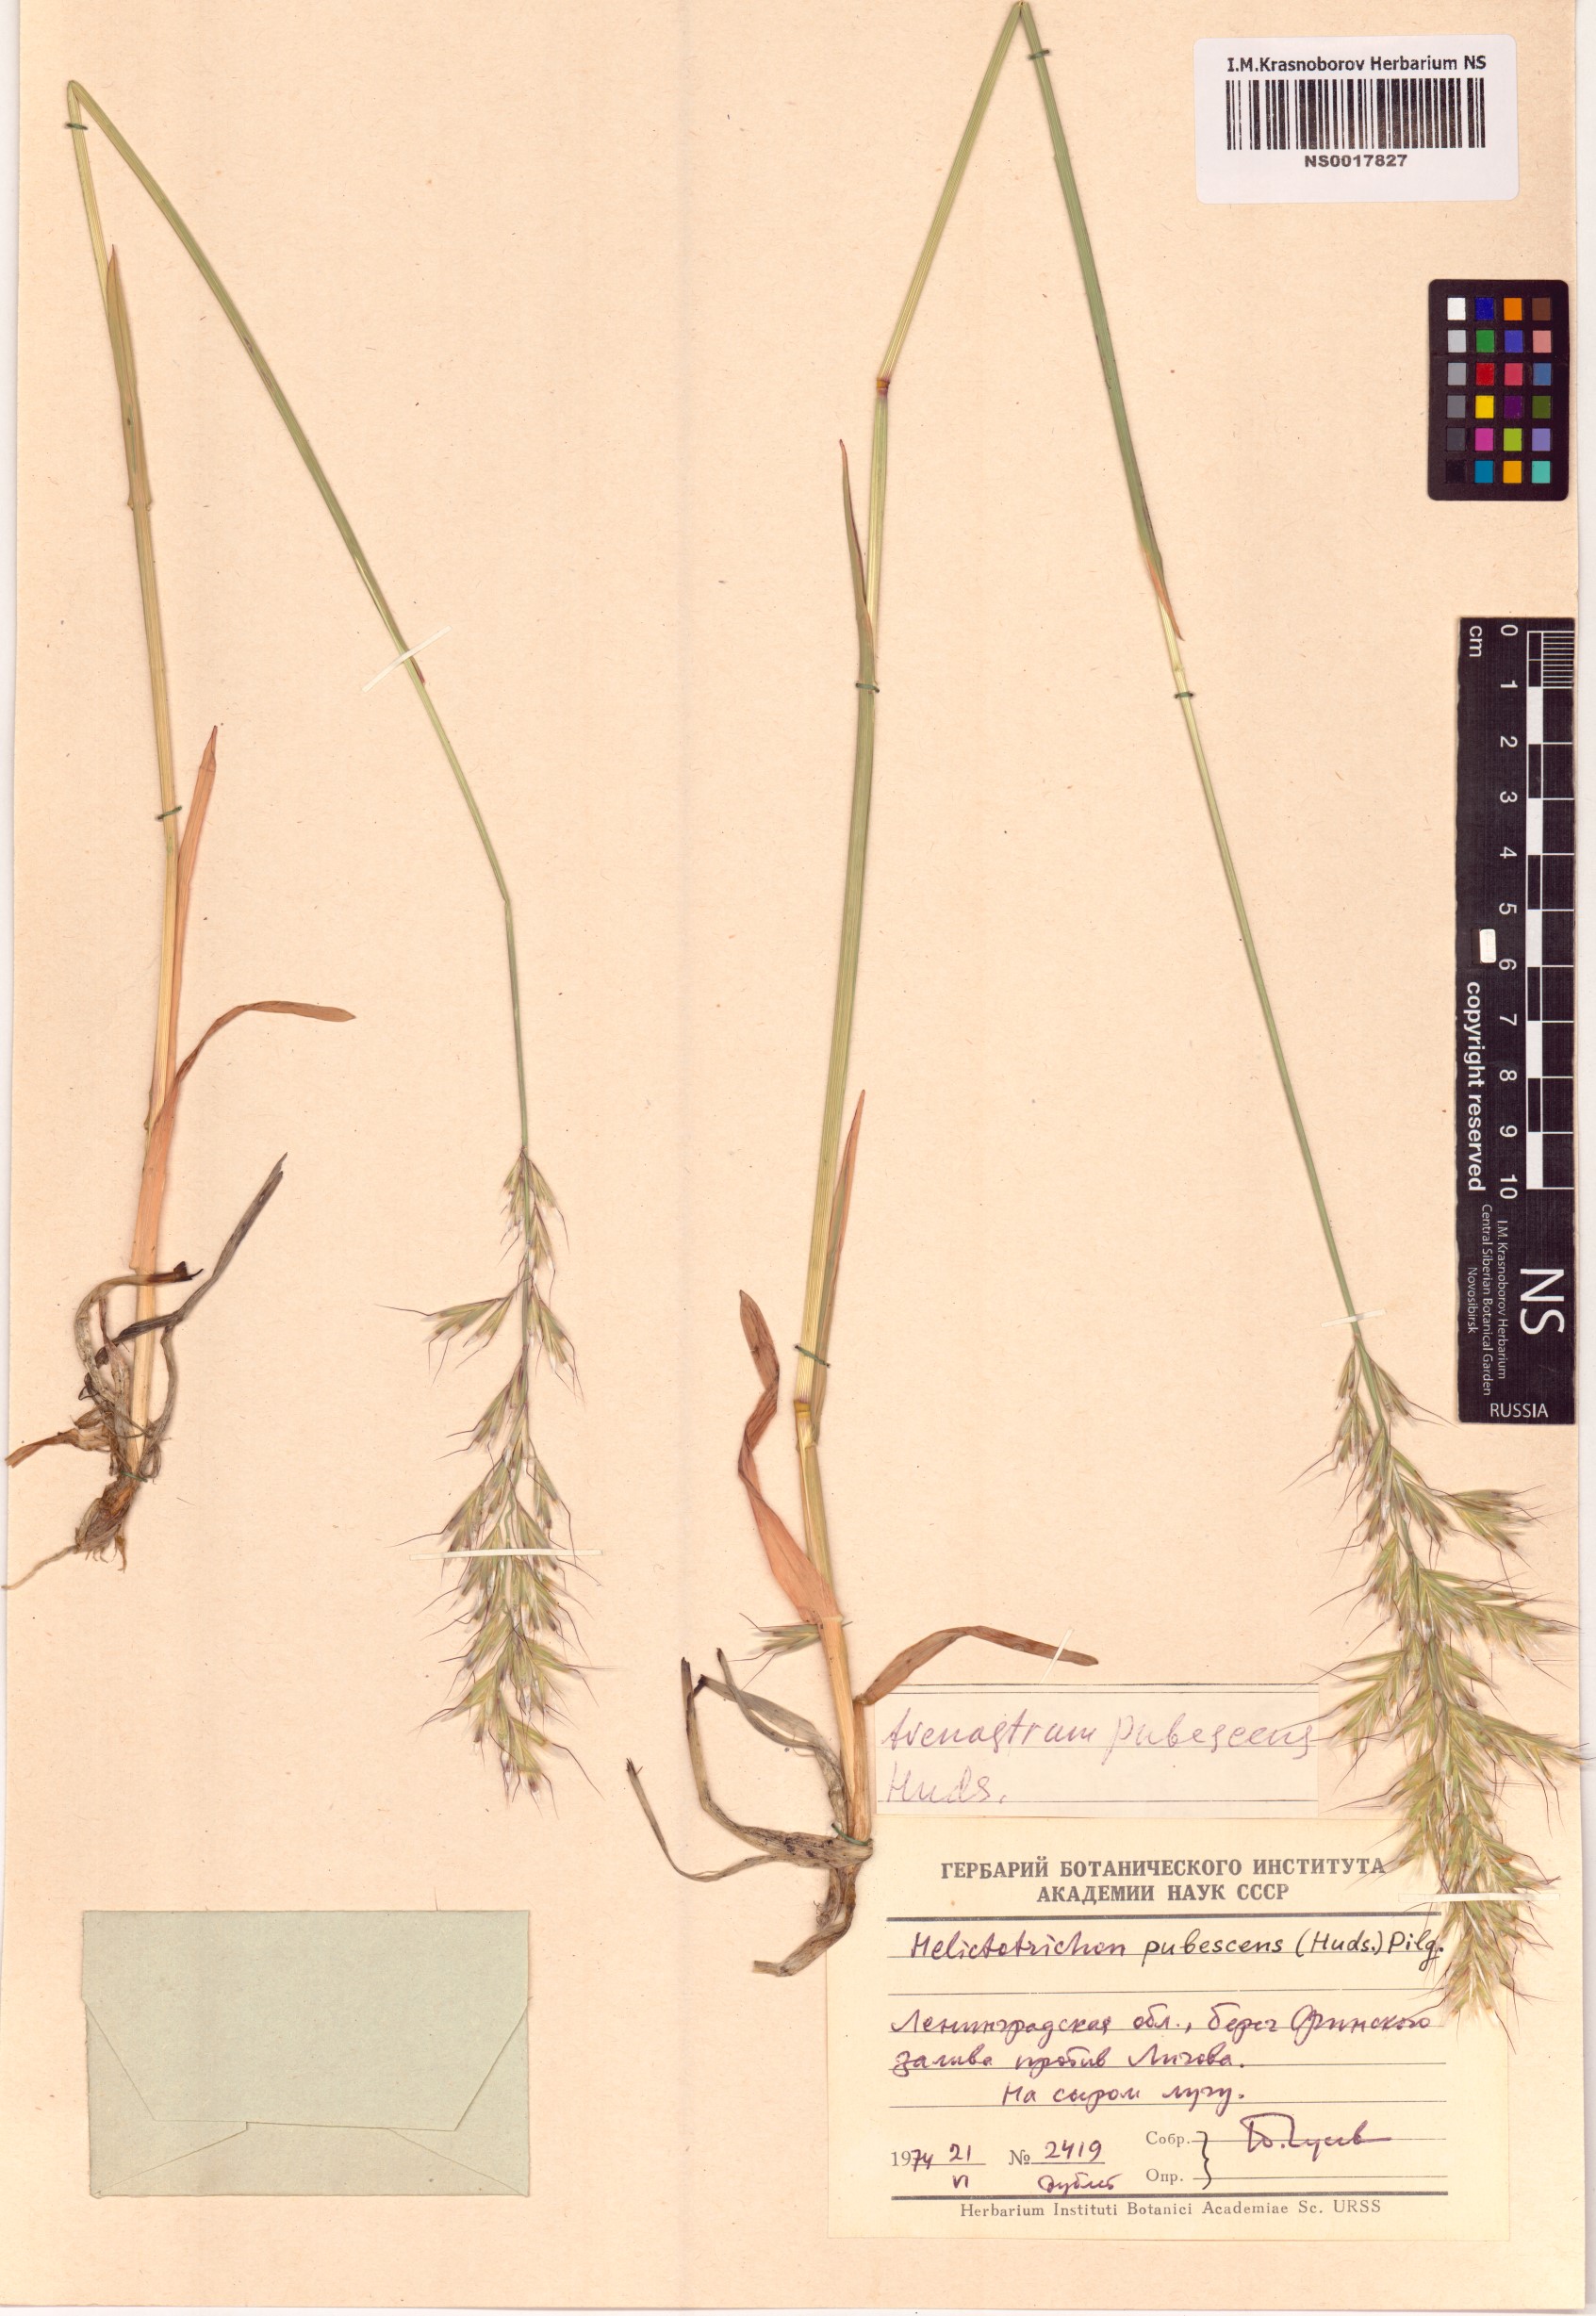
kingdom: Plantae
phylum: Tracheophyta
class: Liliopsida
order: Poales
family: Poaceae
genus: Avenula
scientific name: Avenula pubescens
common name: Downy alpine oatgrass
